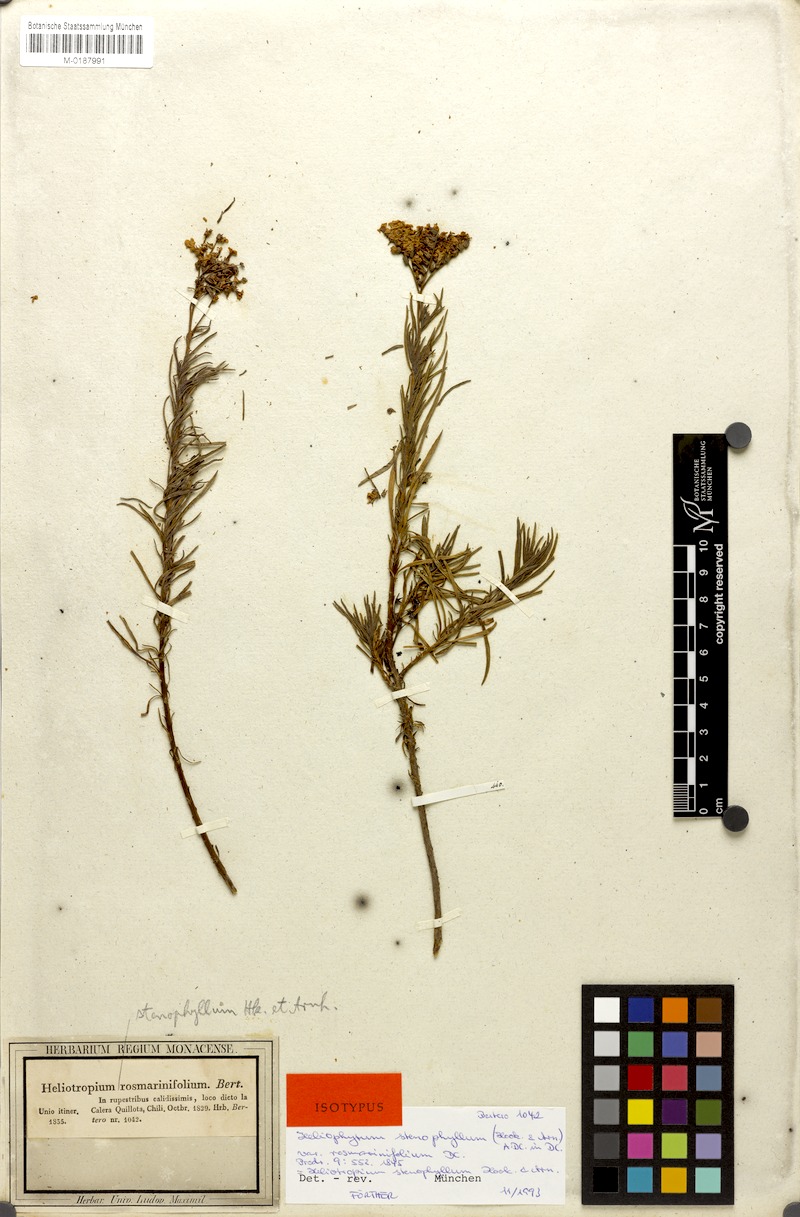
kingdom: Plantae
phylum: Tracheophyta
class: Magnoliopsida
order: Boraginales
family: Heliotropiaceae
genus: Heliotropium
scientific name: Heliotropium stenophyllum
